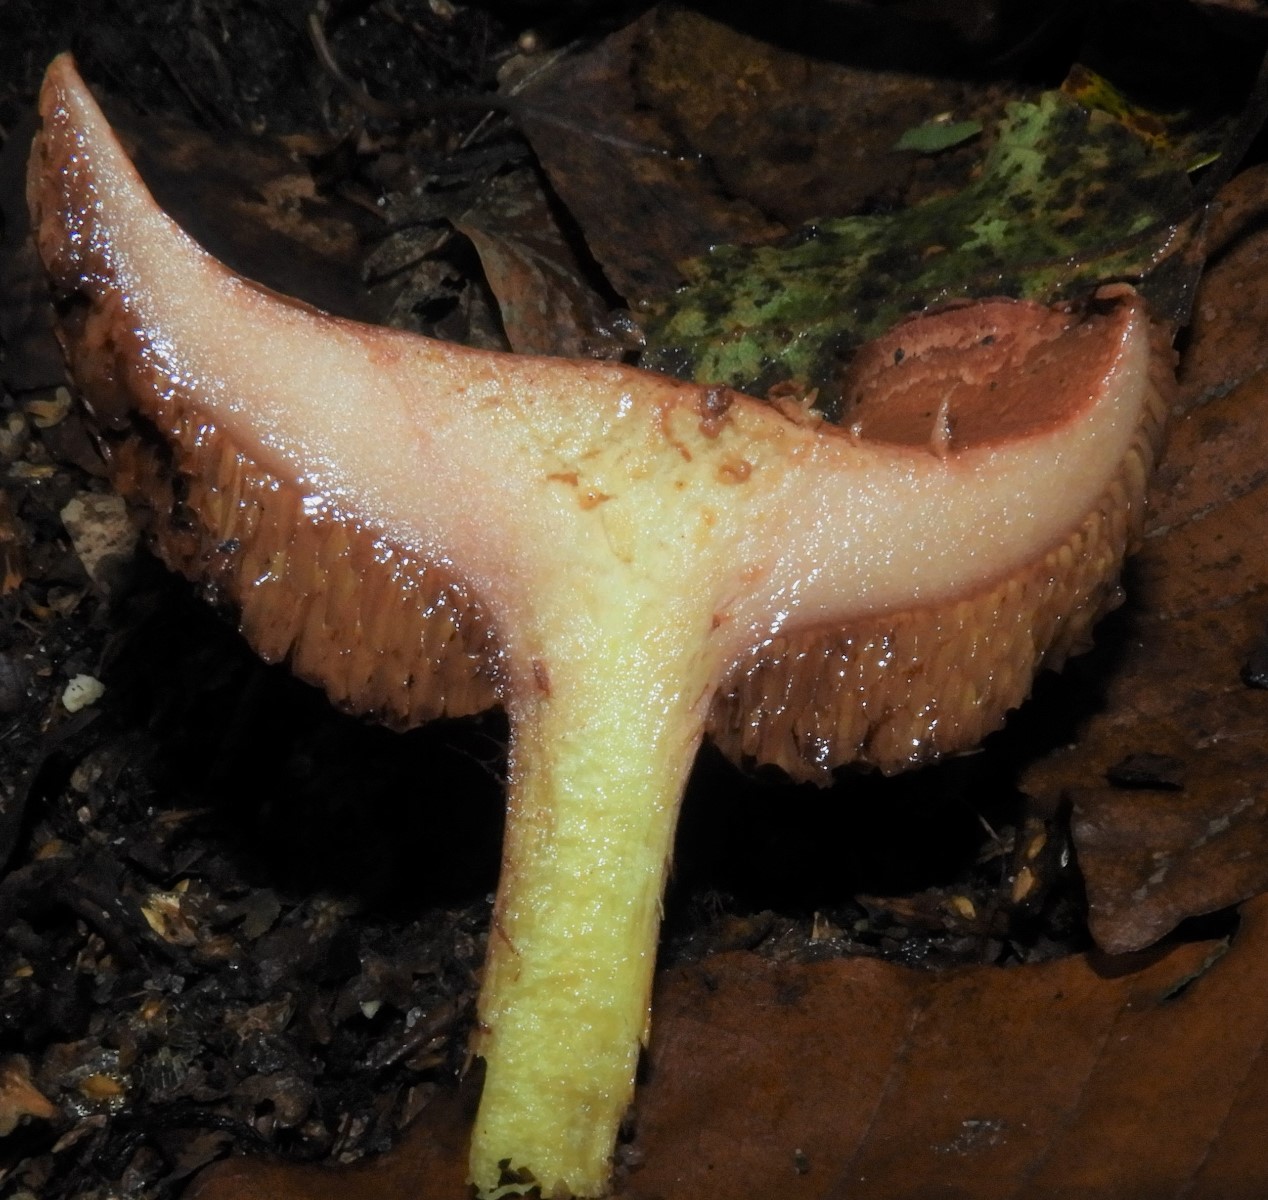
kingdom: Fungi
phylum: Basidiomycota
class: Agaricomycetes
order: Boletales
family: Boletaceae
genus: Chalciporus
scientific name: Chalciporus piperatus
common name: peberrørhat
